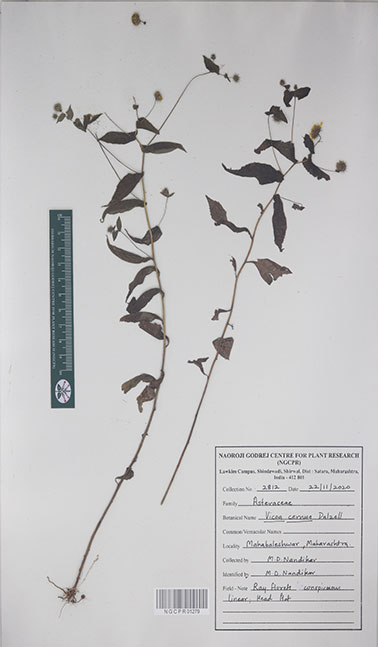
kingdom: Plantae
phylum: Tracheophyta
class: Magnoliopsida
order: Asterales
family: Asteraceae
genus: Vicoa
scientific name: Vicoa cernua
